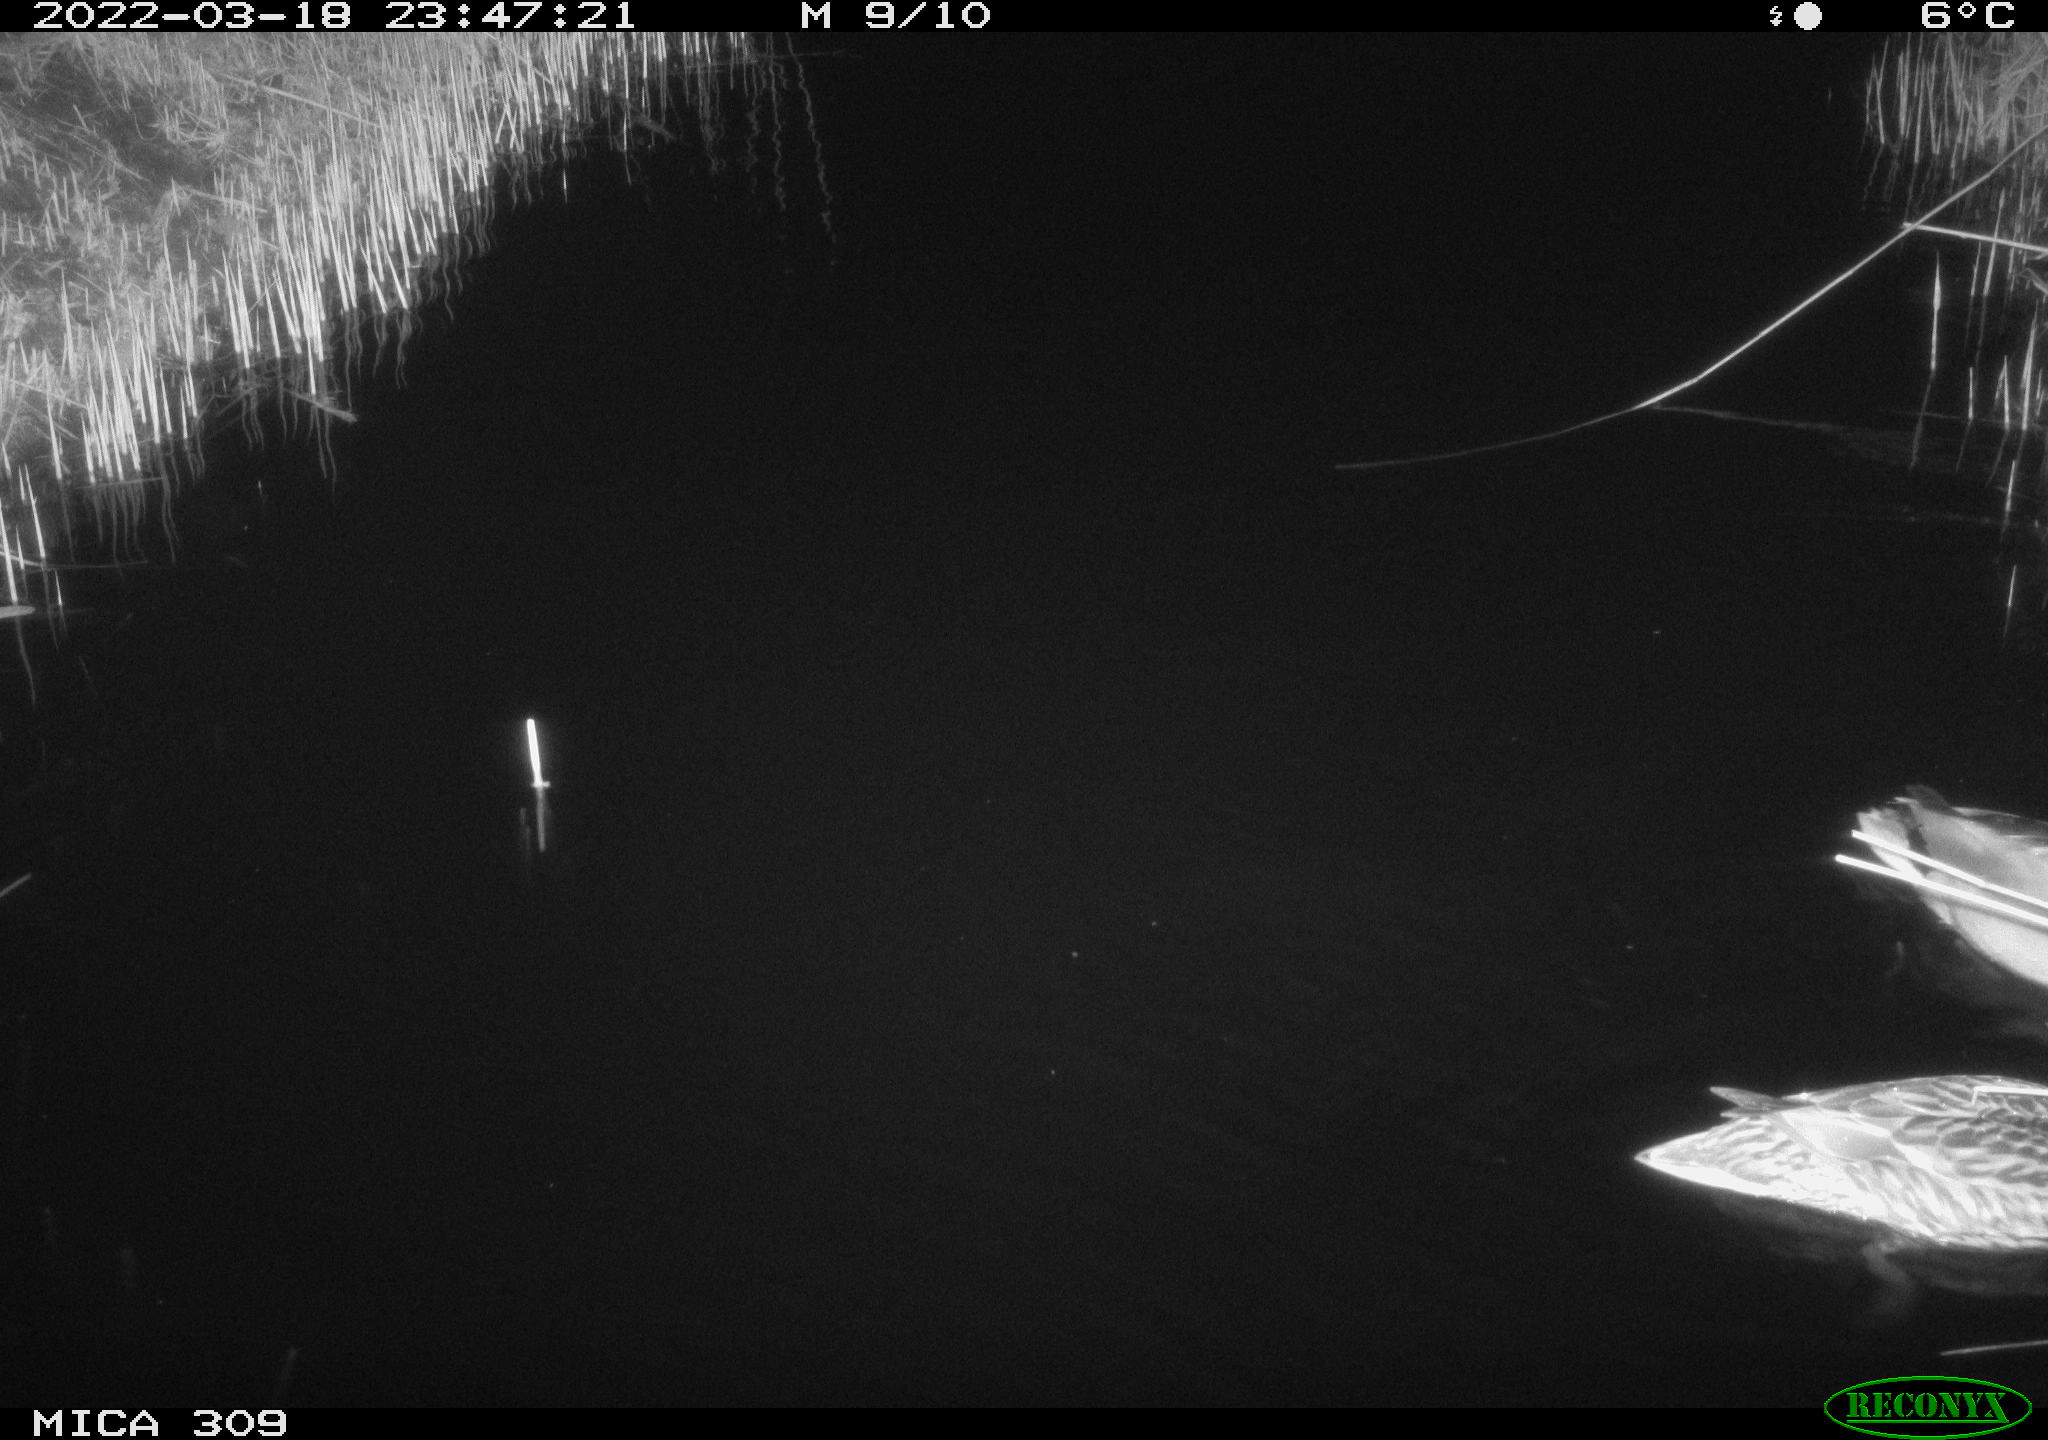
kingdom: Animalia
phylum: Chordata
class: Aves
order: Anseriformes
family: Anatidae
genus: Anas
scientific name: Anas platyrhynchos
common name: Mallard
